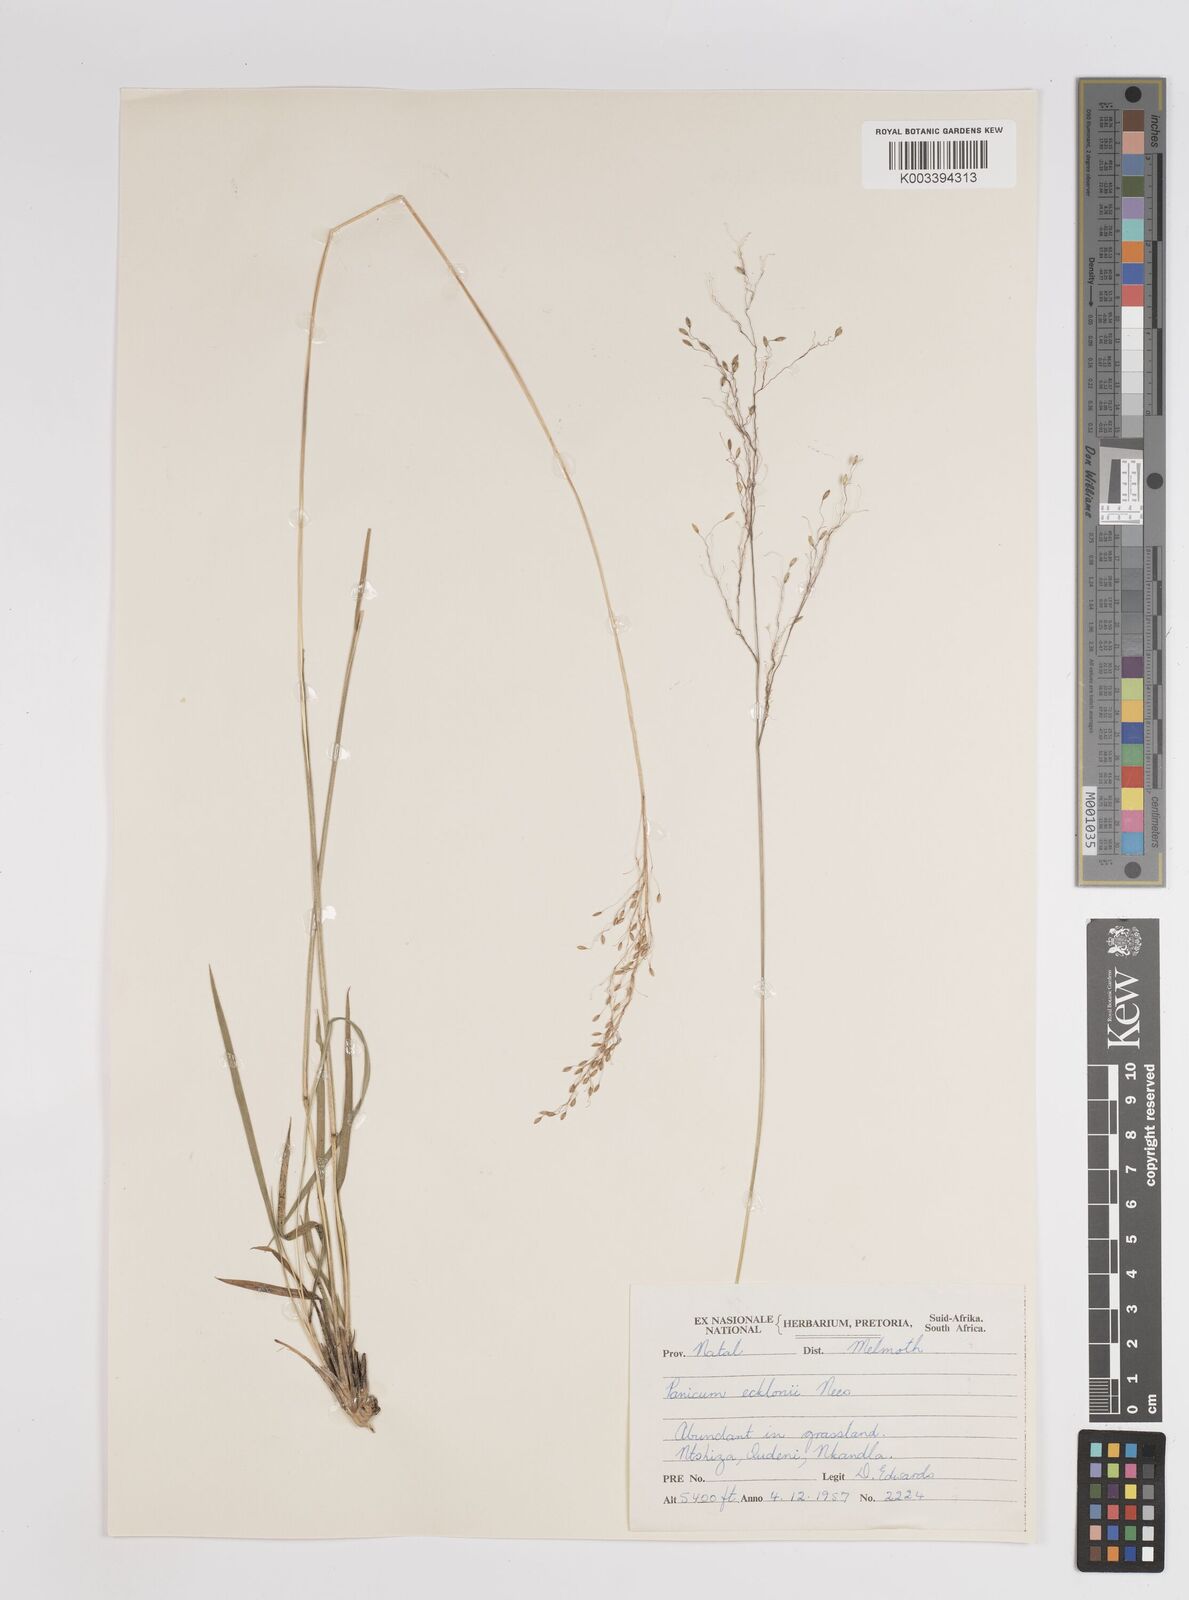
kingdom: Plantae
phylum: Tracheophyta
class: Liliopsida
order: Poales
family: Poaceae
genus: Adenochloa
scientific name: Adenochloa ecklonii
